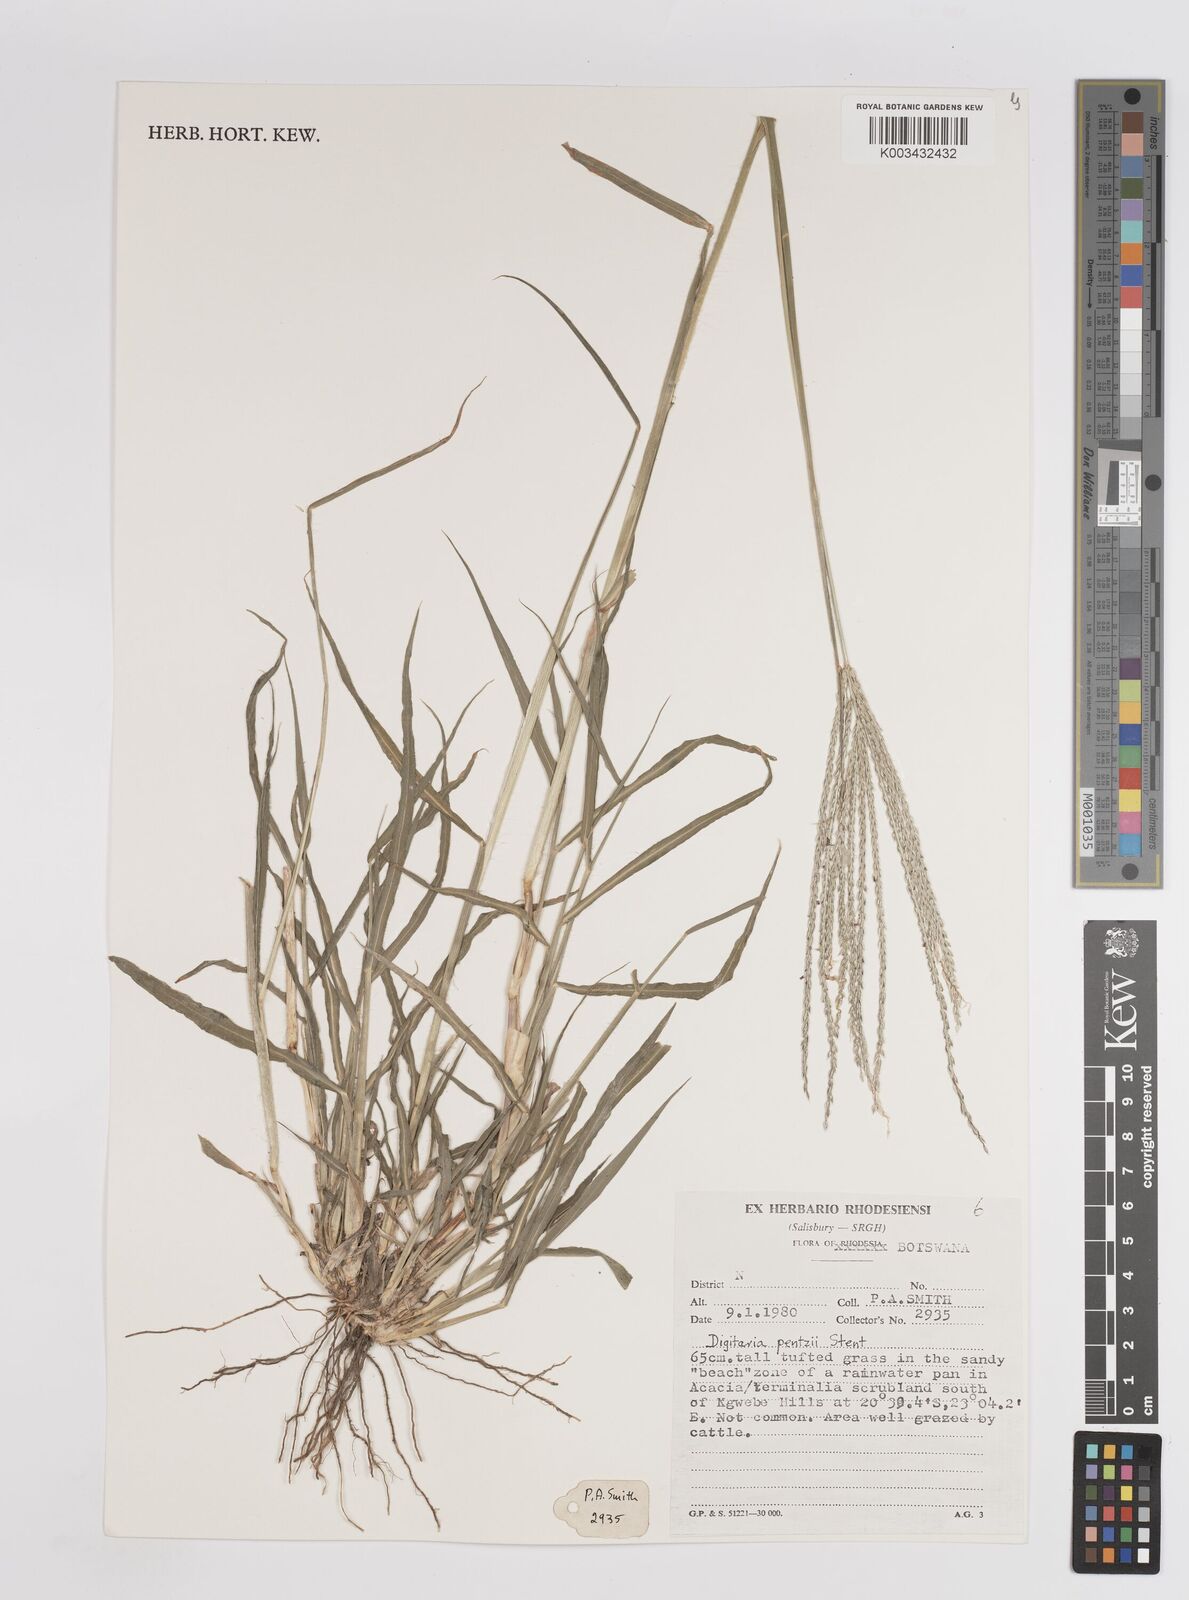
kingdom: Plantae
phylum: Tracheophyta
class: Liliopsida
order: Poales
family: Poaceae
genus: Digitaria
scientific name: Digitaria eriantha
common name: Digitgrass
